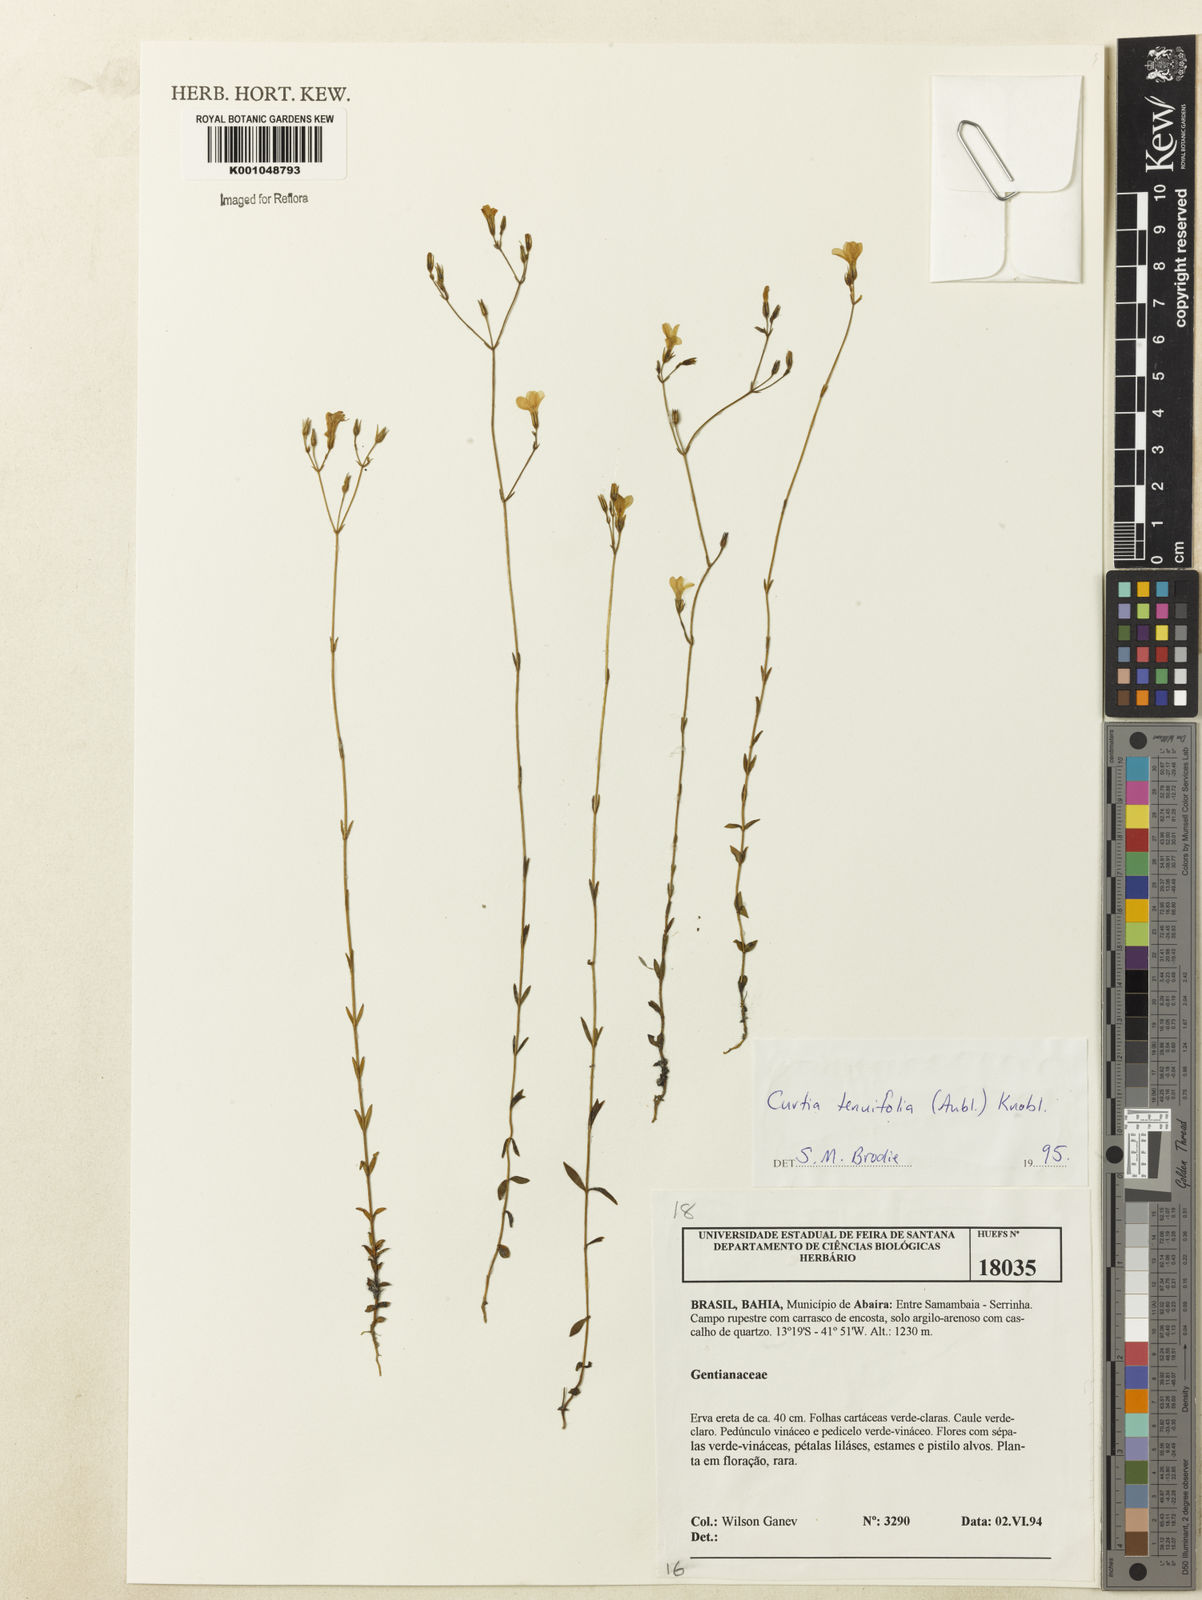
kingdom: Plantae
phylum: Tracheophyta
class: Magnoliopsida
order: Gentianales
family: Gentianaceae
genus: Curtia
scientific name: Curtia tenuifolia
